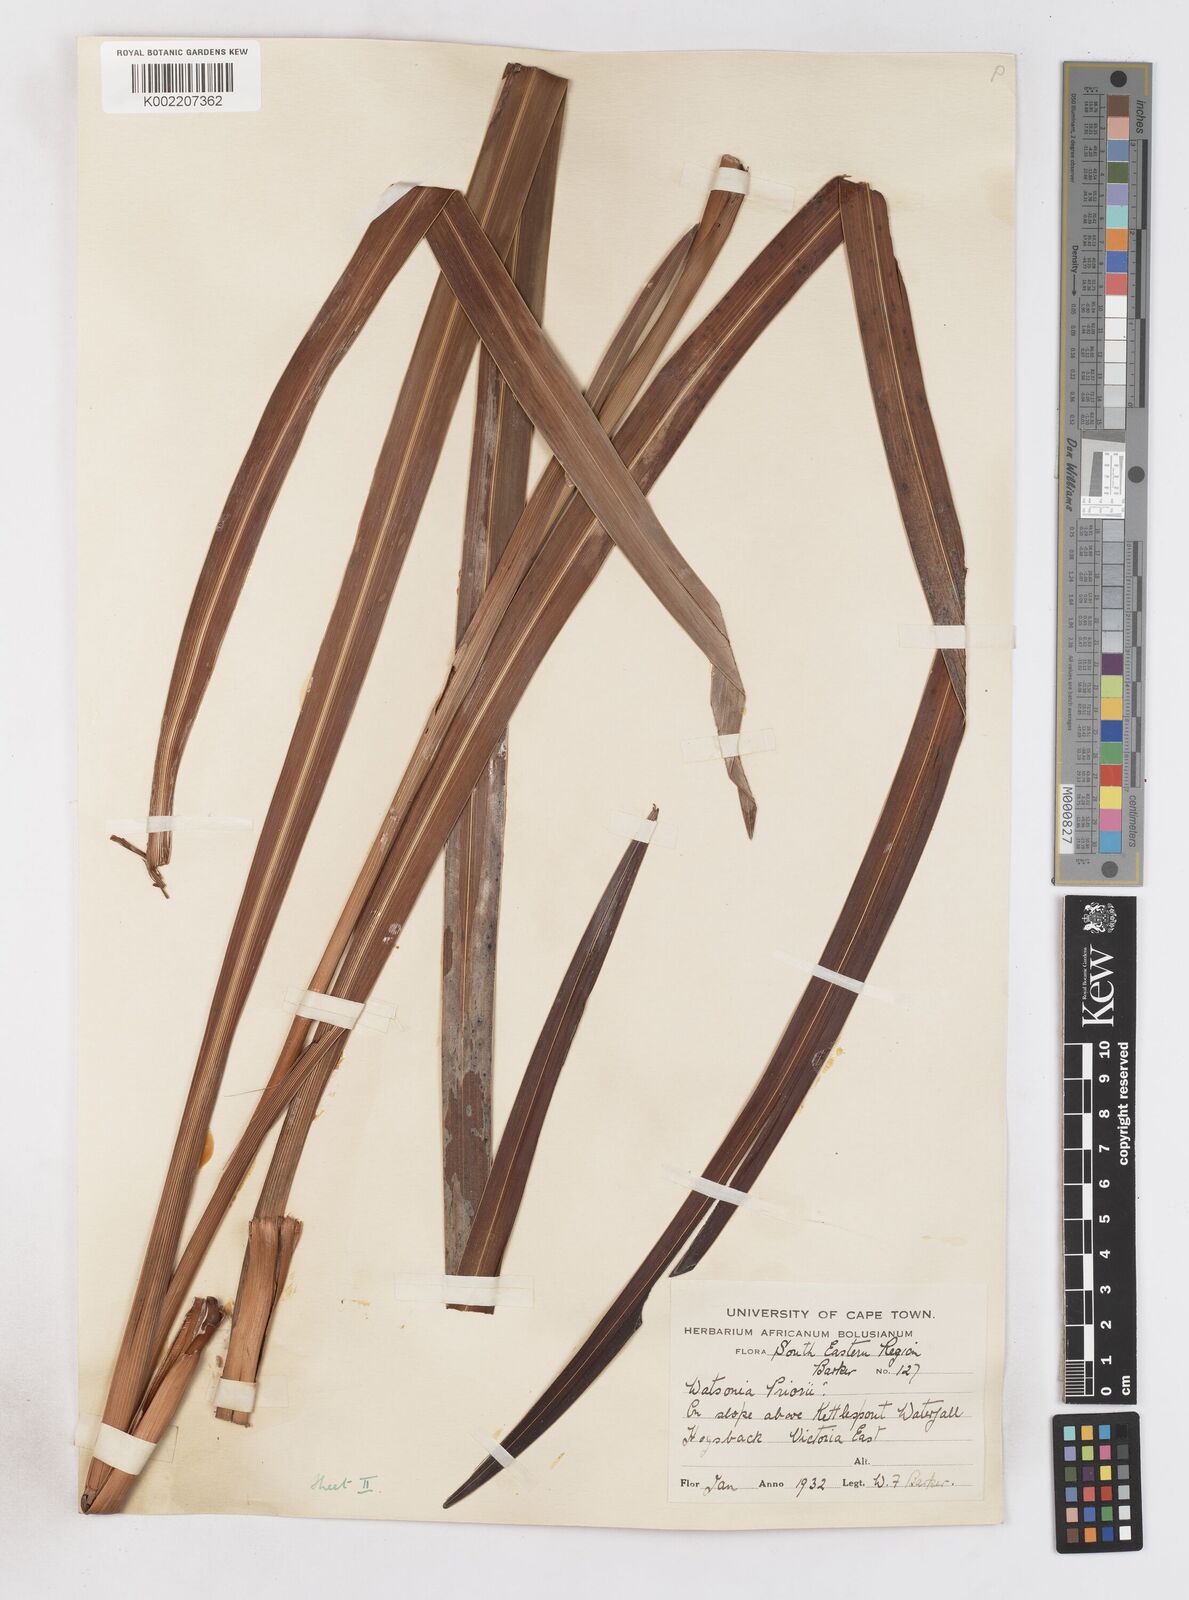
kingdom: Plantae
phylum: Tracheophyta
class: Liliopsida
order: Asparagales
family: Iridaceae
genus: Watsonia
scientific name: Watsonia pillansii
